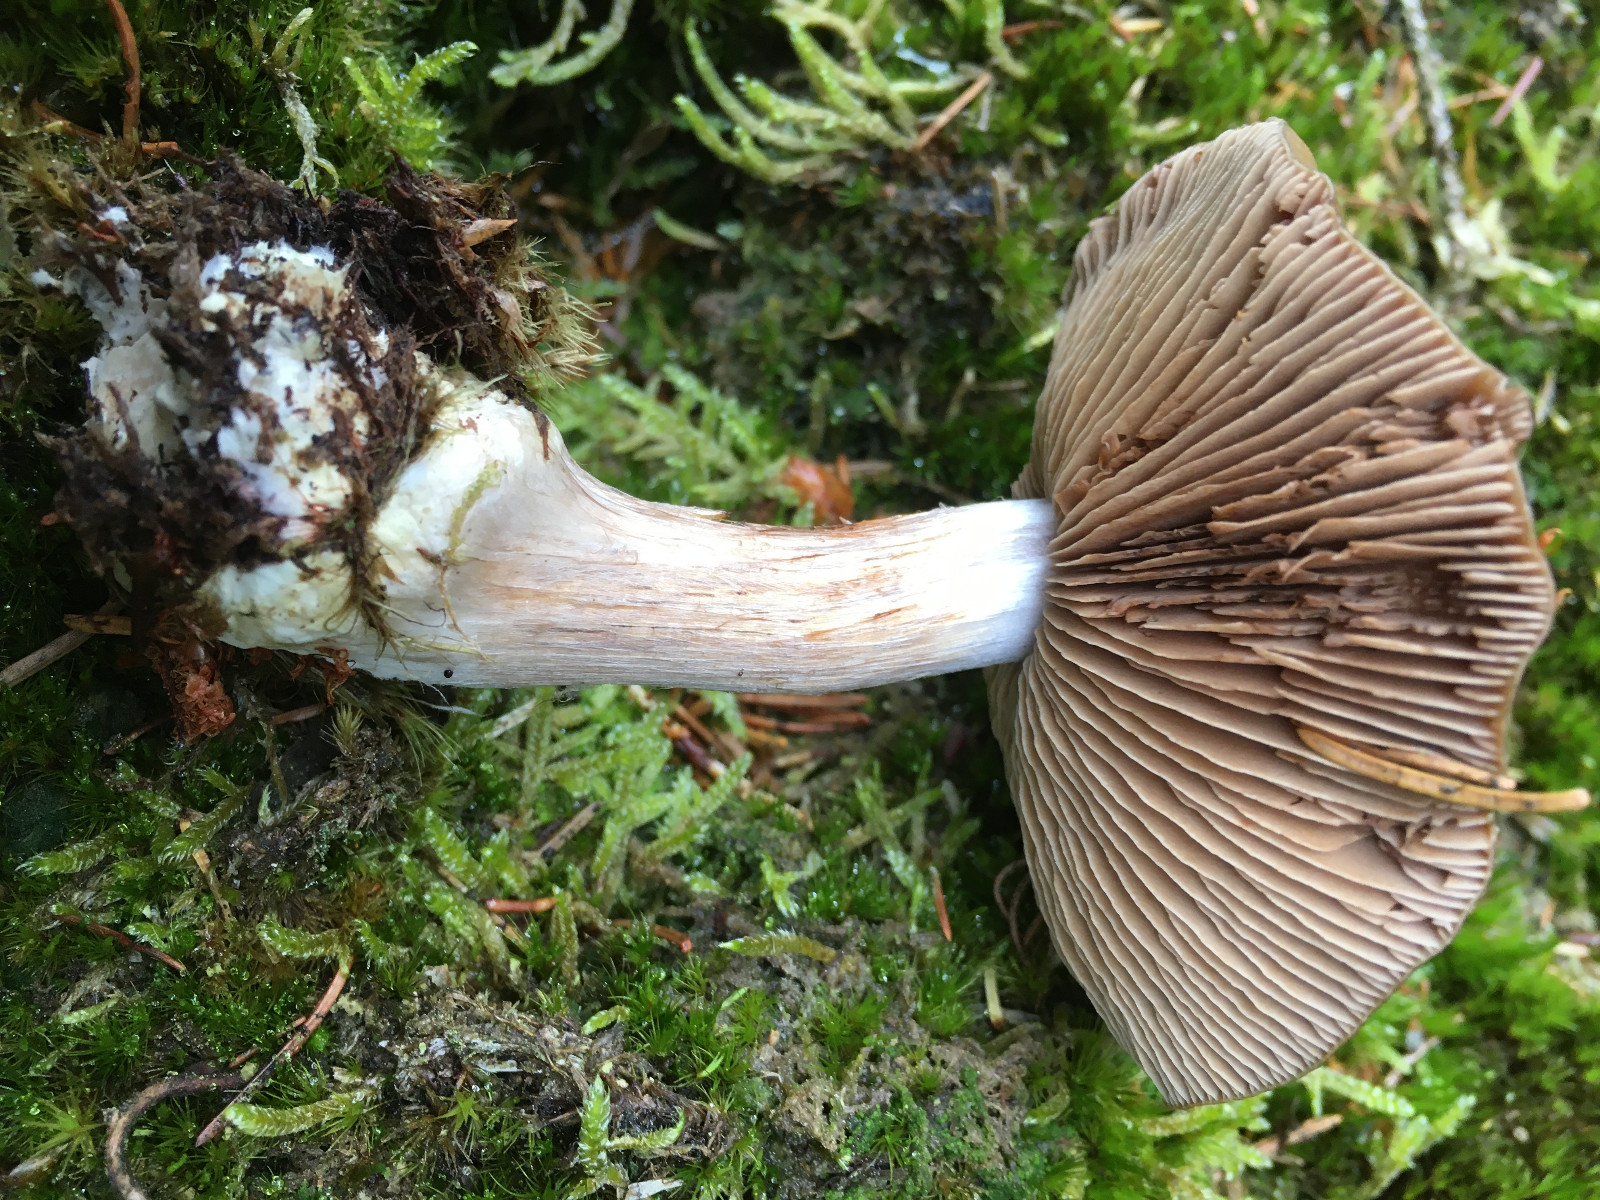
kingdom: Fungi
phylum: Basidiomycota
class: Agaricomycetes
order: Agaricales
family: Cortinariaceae
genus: Cortinarius
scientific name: Cortinarius
